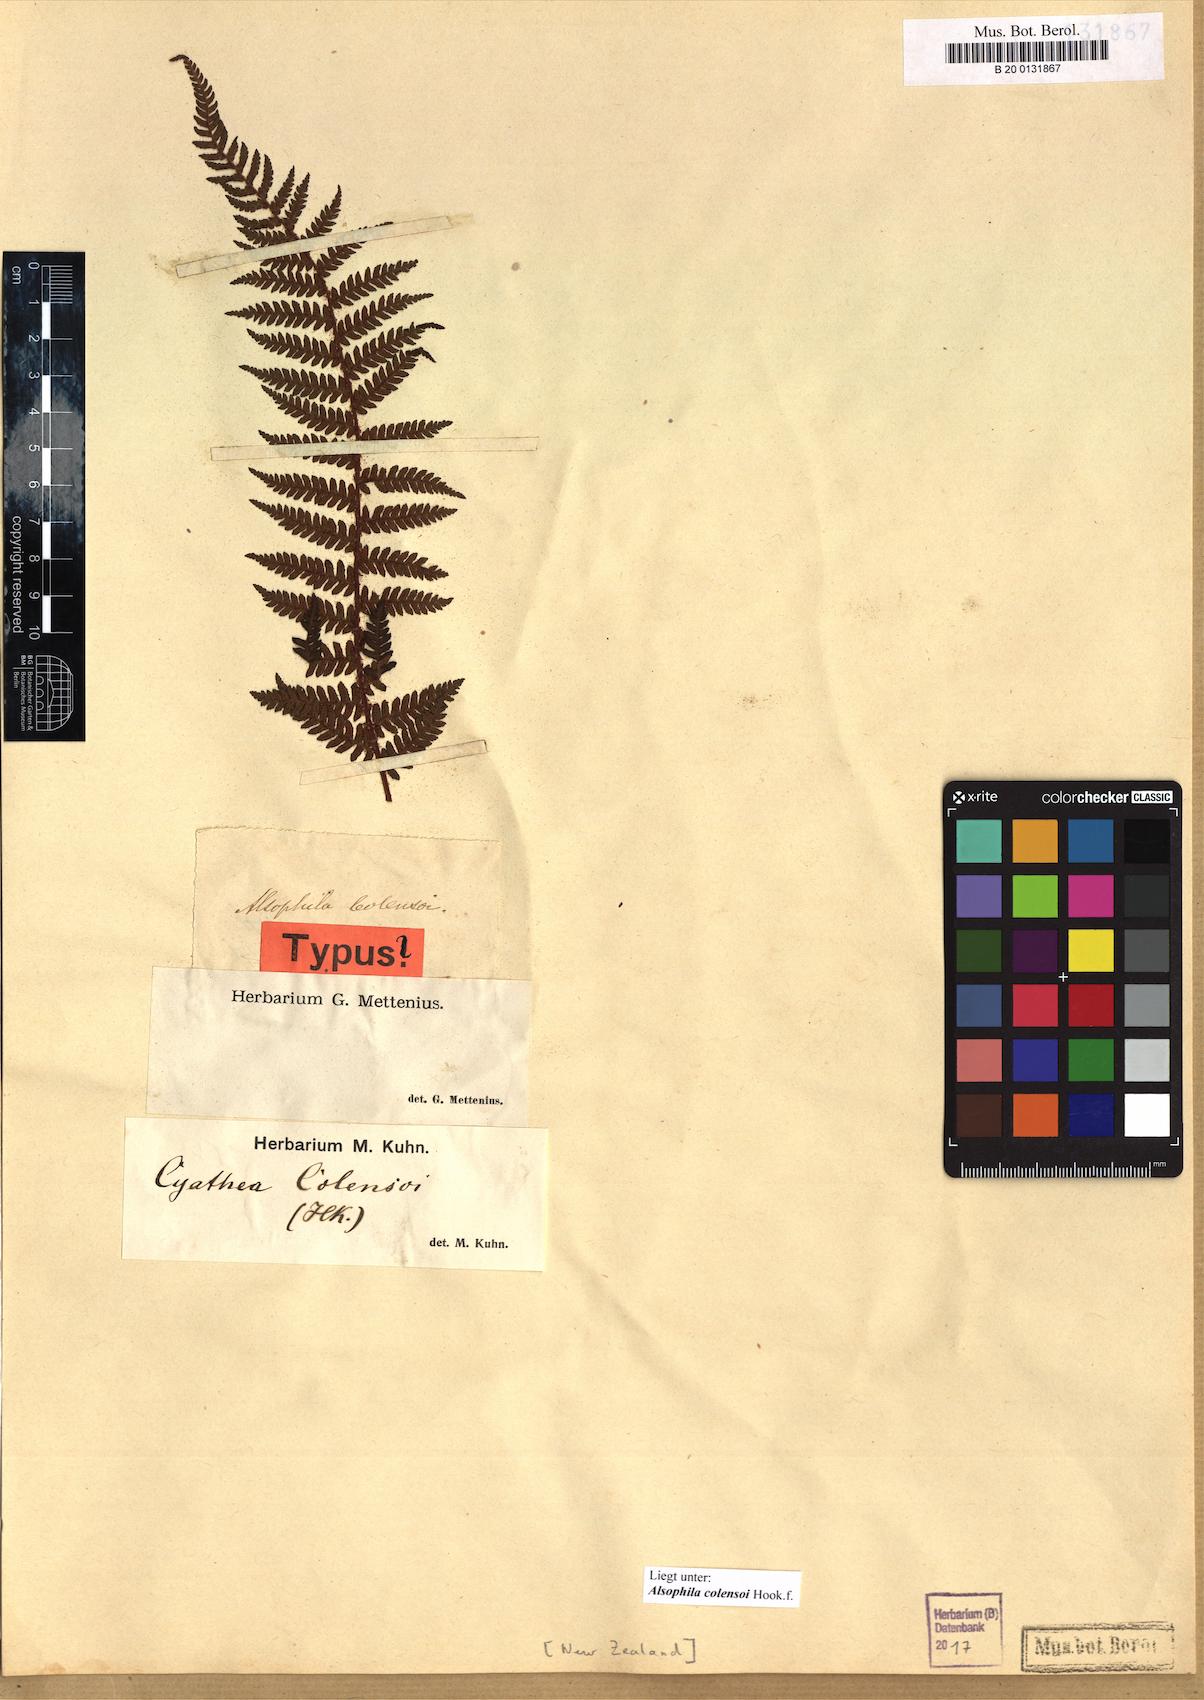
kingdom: Plantae
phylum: Tracheophyta
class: Polypodiopsida
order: Cyatheales
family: Cyatheaceae
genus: Alsophila
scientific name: Alsophila colensoi
